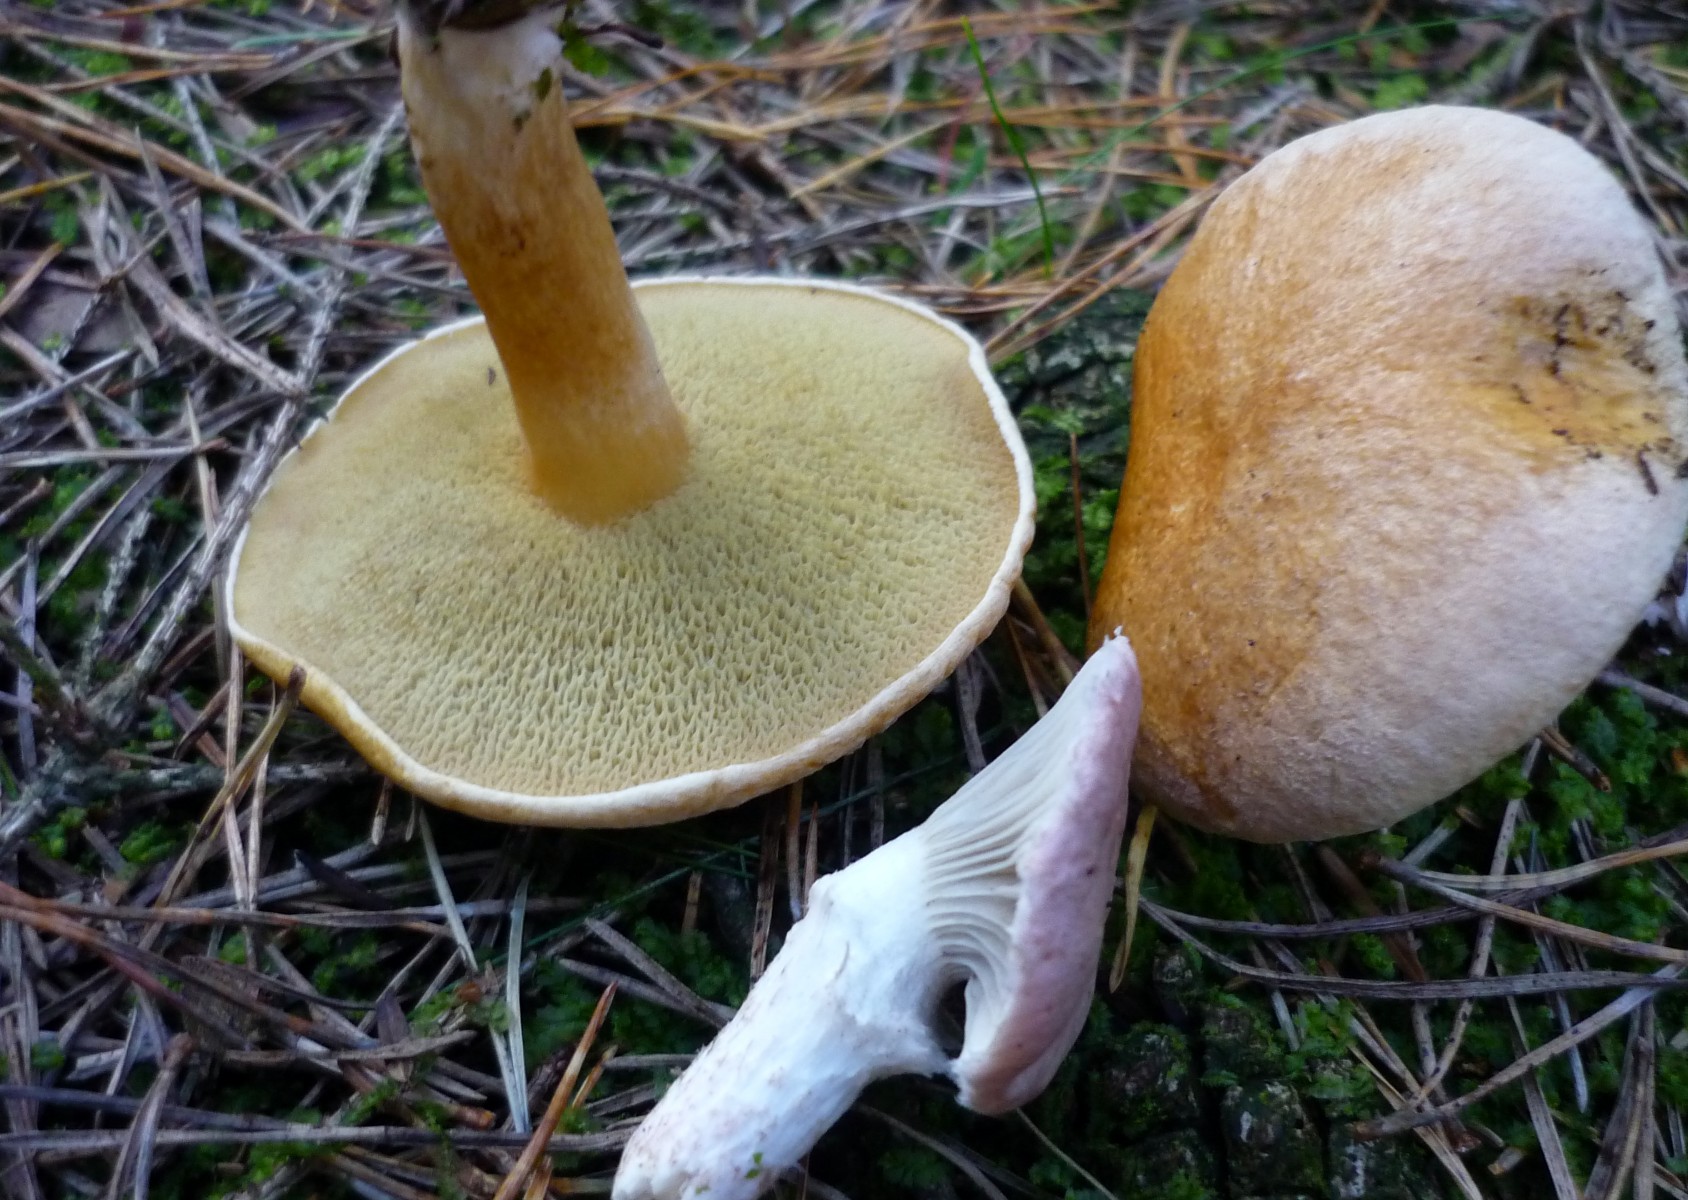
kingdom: Fungi
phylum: Basidiomycota
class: Agaricomycetes
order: Boletales
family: Gomphidiaceae
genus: Gomphidius
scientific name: Gomphidius roseus
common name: rosenrød slimslør
